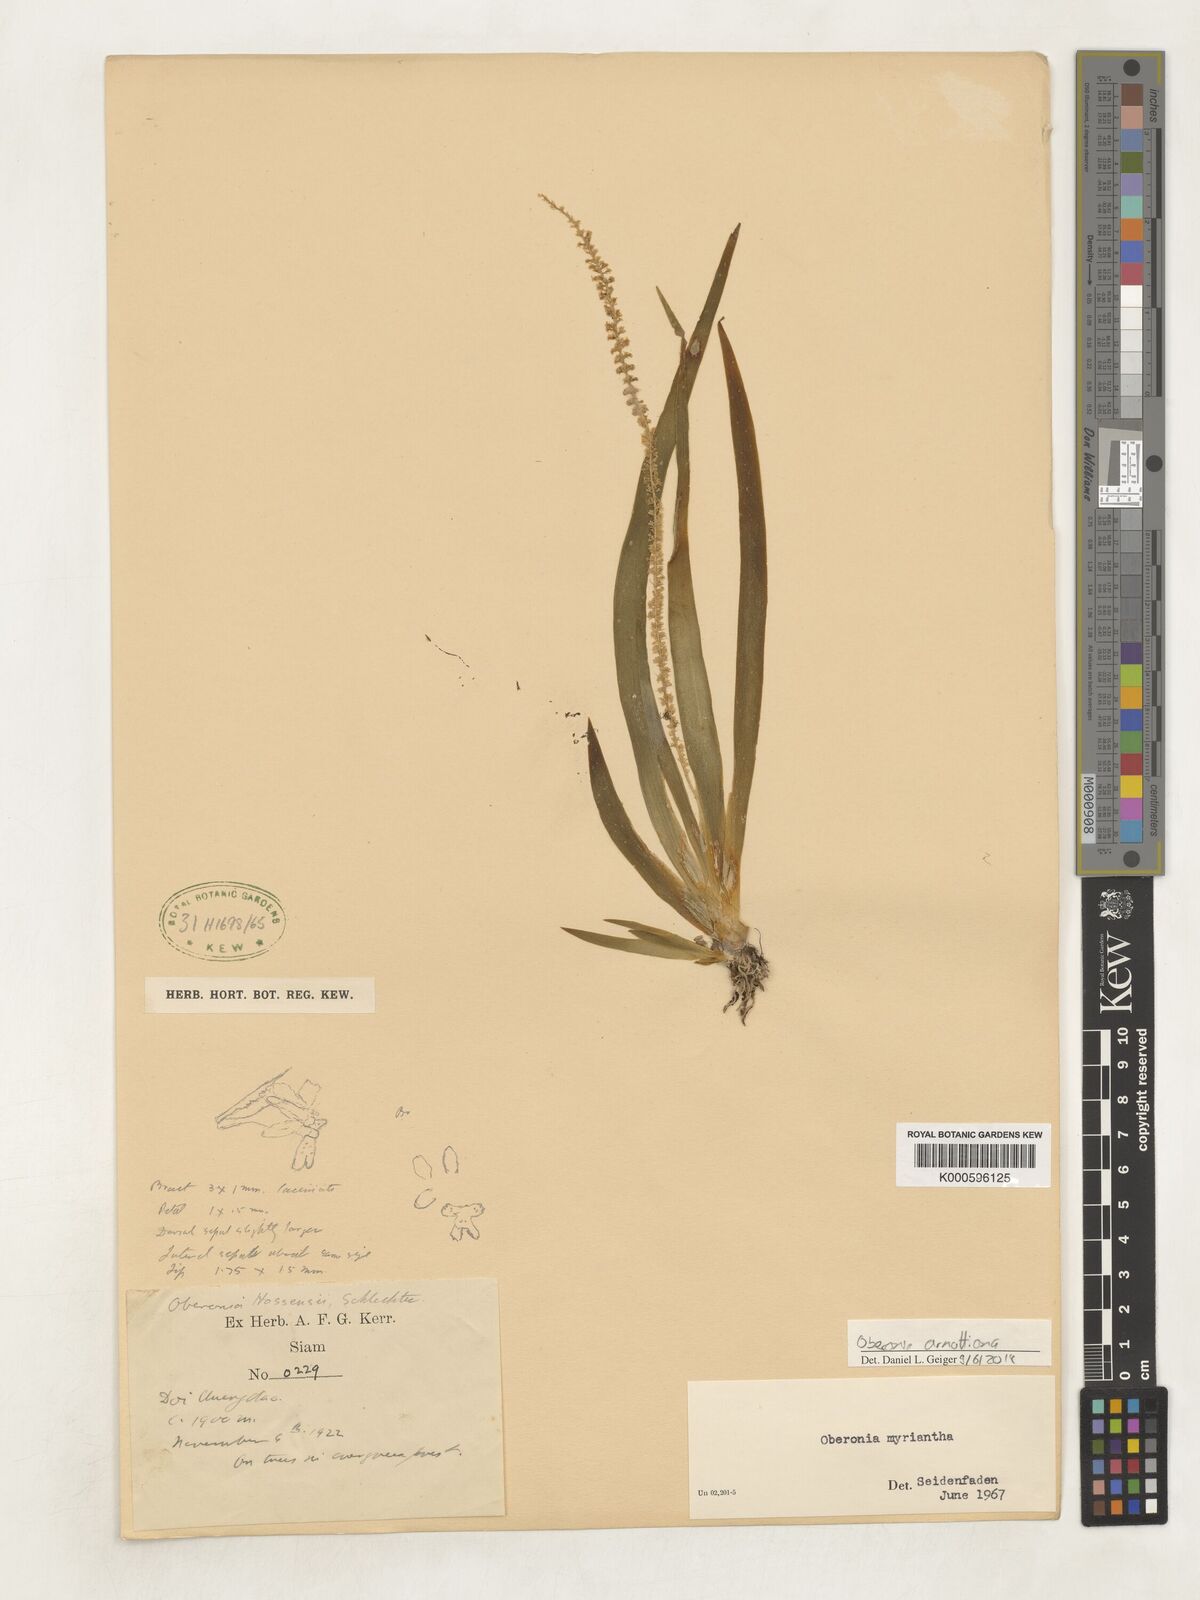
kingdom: Plantae
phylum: Tracheophyta
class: Liliopsida
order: Asparagales
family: Orchidaceae
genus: Oberonia
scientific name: Oberonia wightiana
